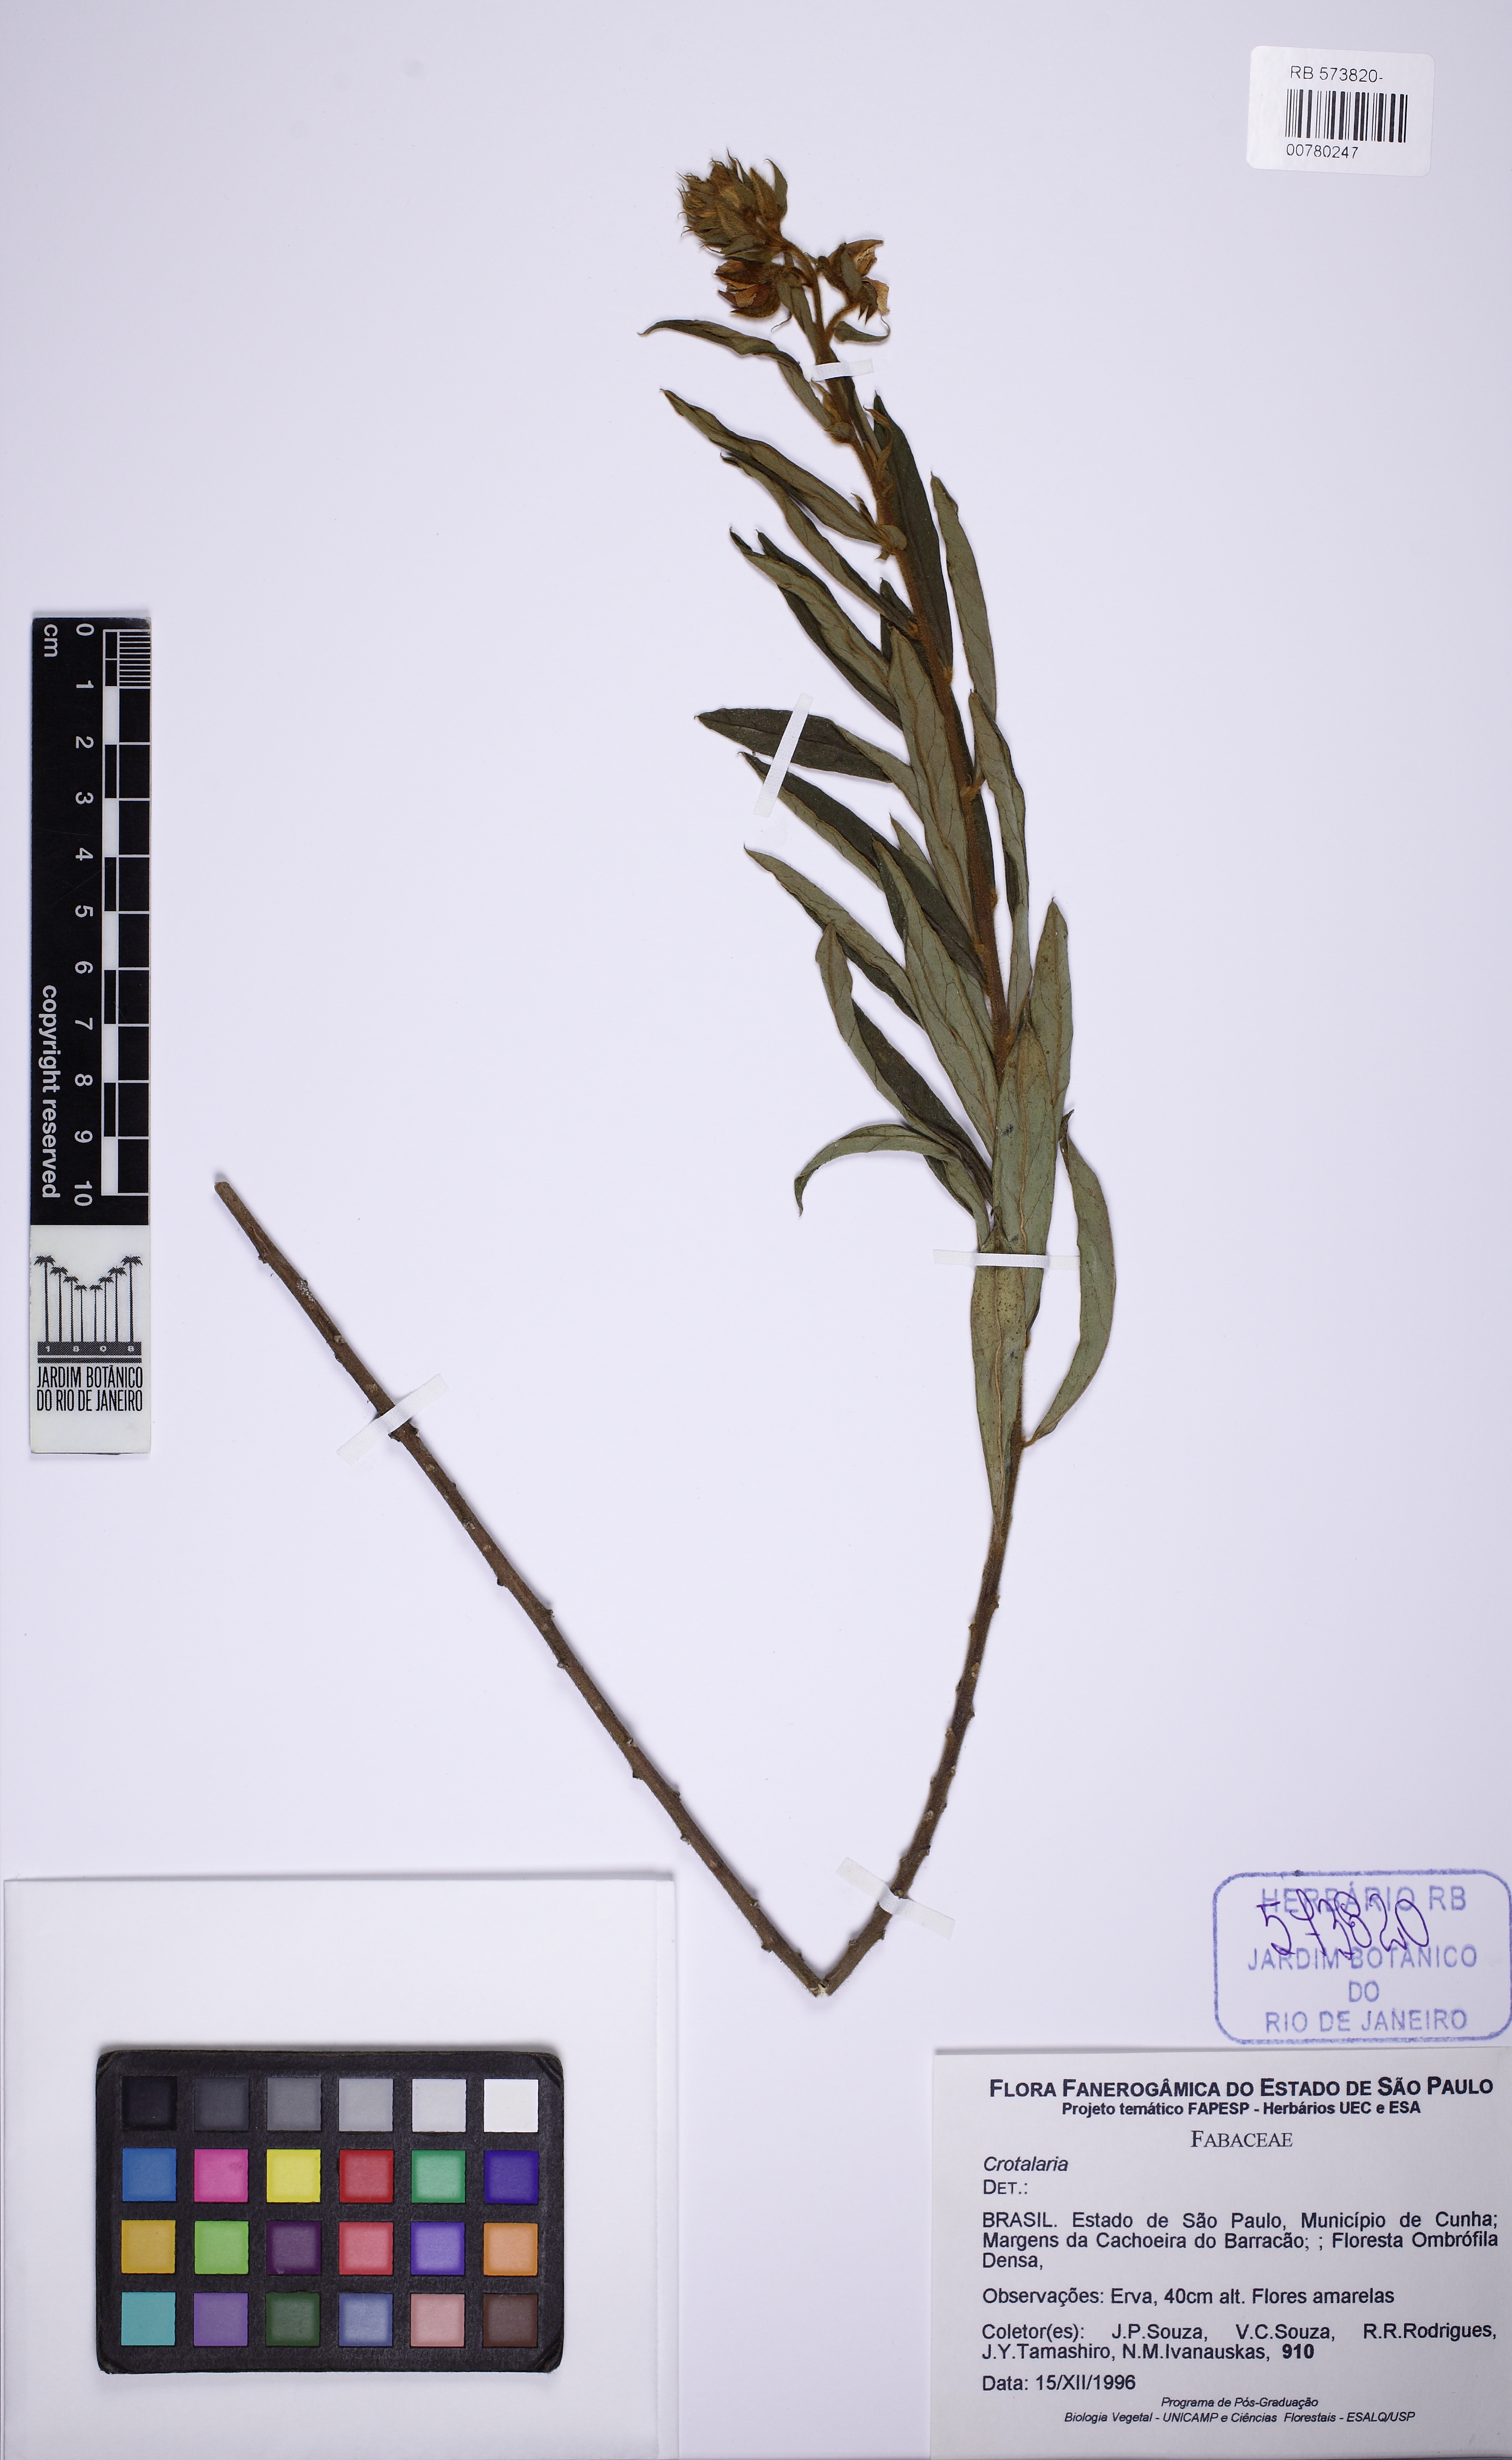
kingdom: Plantae
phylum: Tracheophyta
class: Magnoliopsida
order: Fabales
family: Fabaceae
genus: Crotalaria
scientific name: Crotalaria
